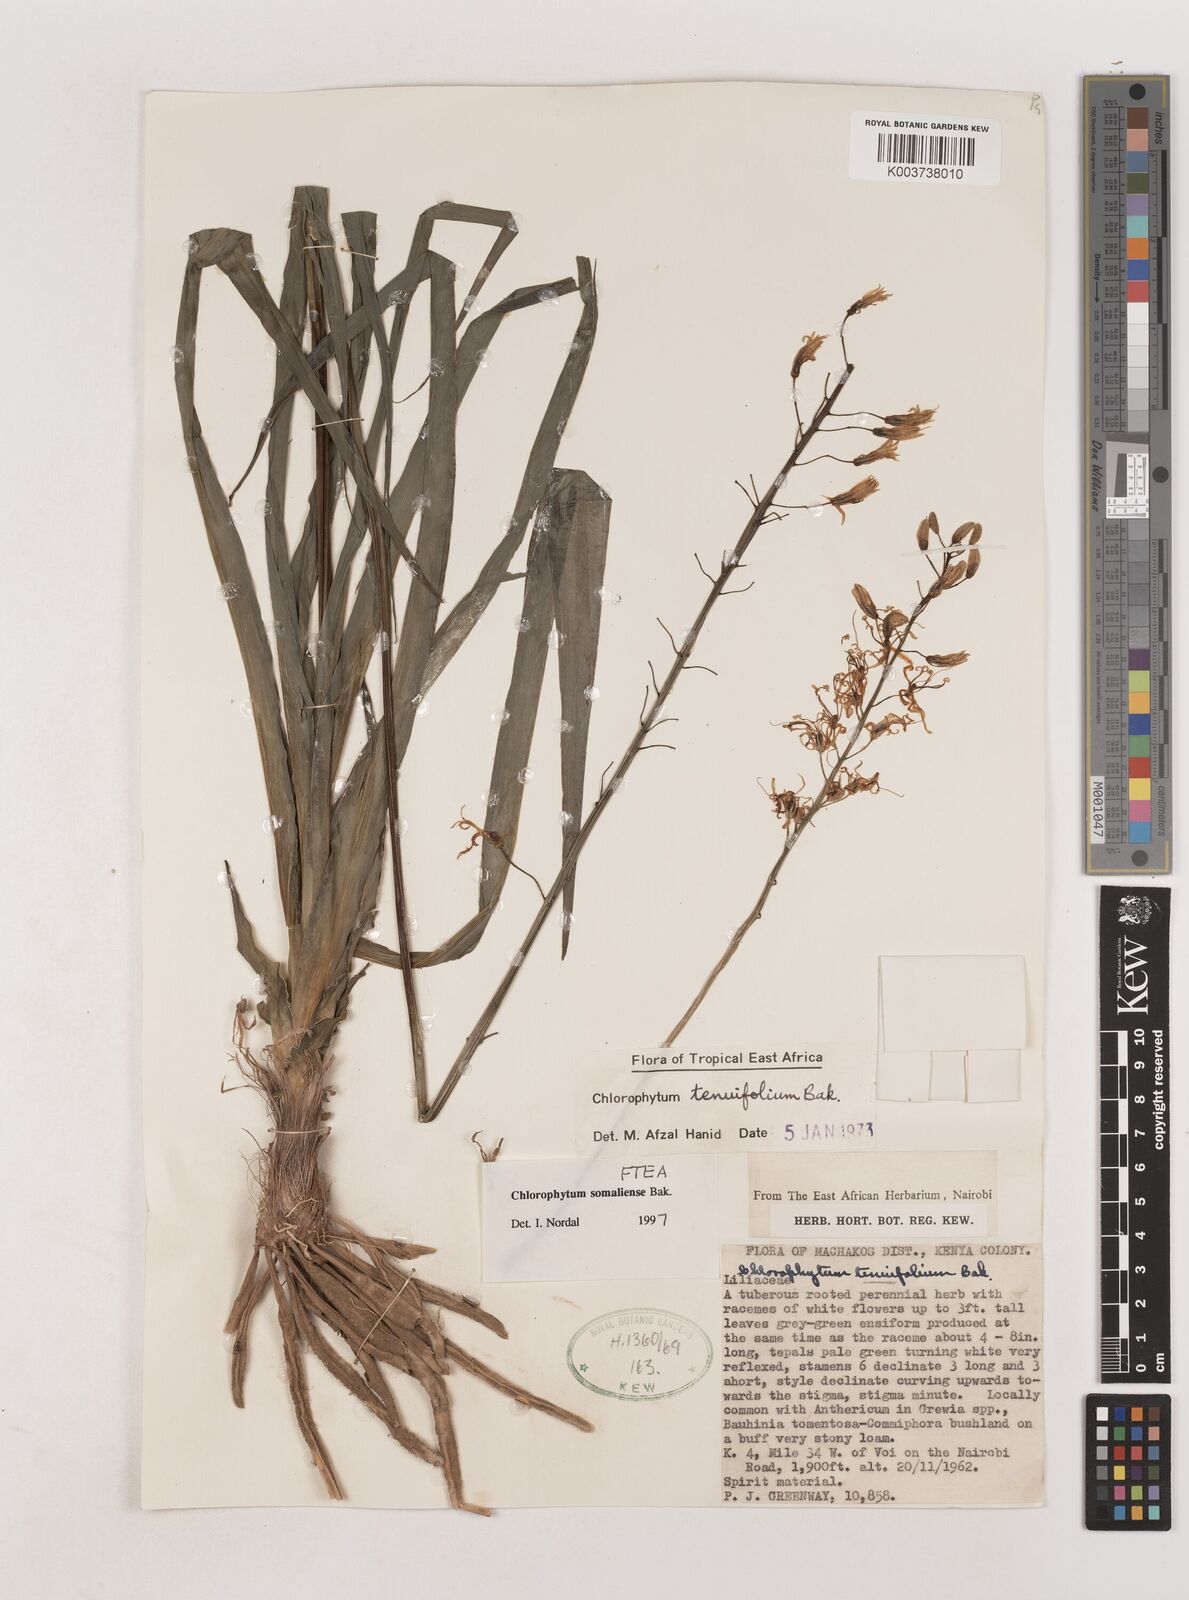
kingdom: Plantae
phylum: Tracheophyta
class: Liliopsida
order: Asparagales
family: Asparagaceae
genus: Chlorophytum
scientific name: Chlorophytum somaliense
